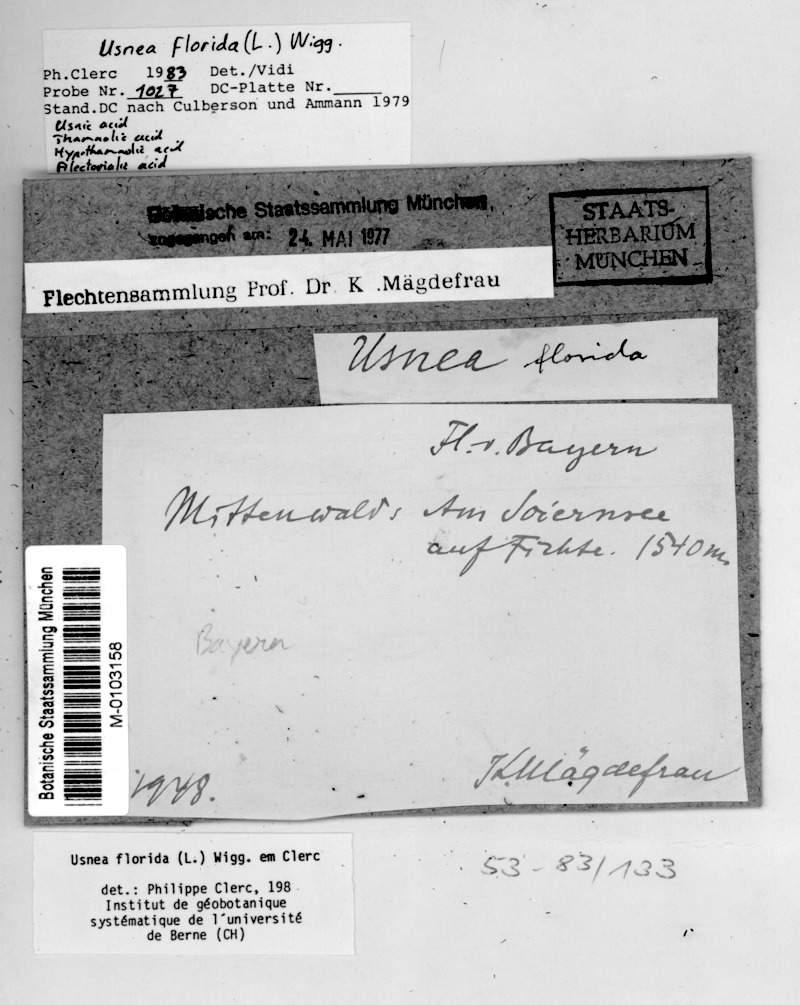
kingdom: Fungi
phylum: Ascomycota
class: Lecanoromycetes
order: Lecanorales
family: Parmeliaceae
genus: Usnea
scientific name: Usnea florida
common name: Witches' whiskers lichen
